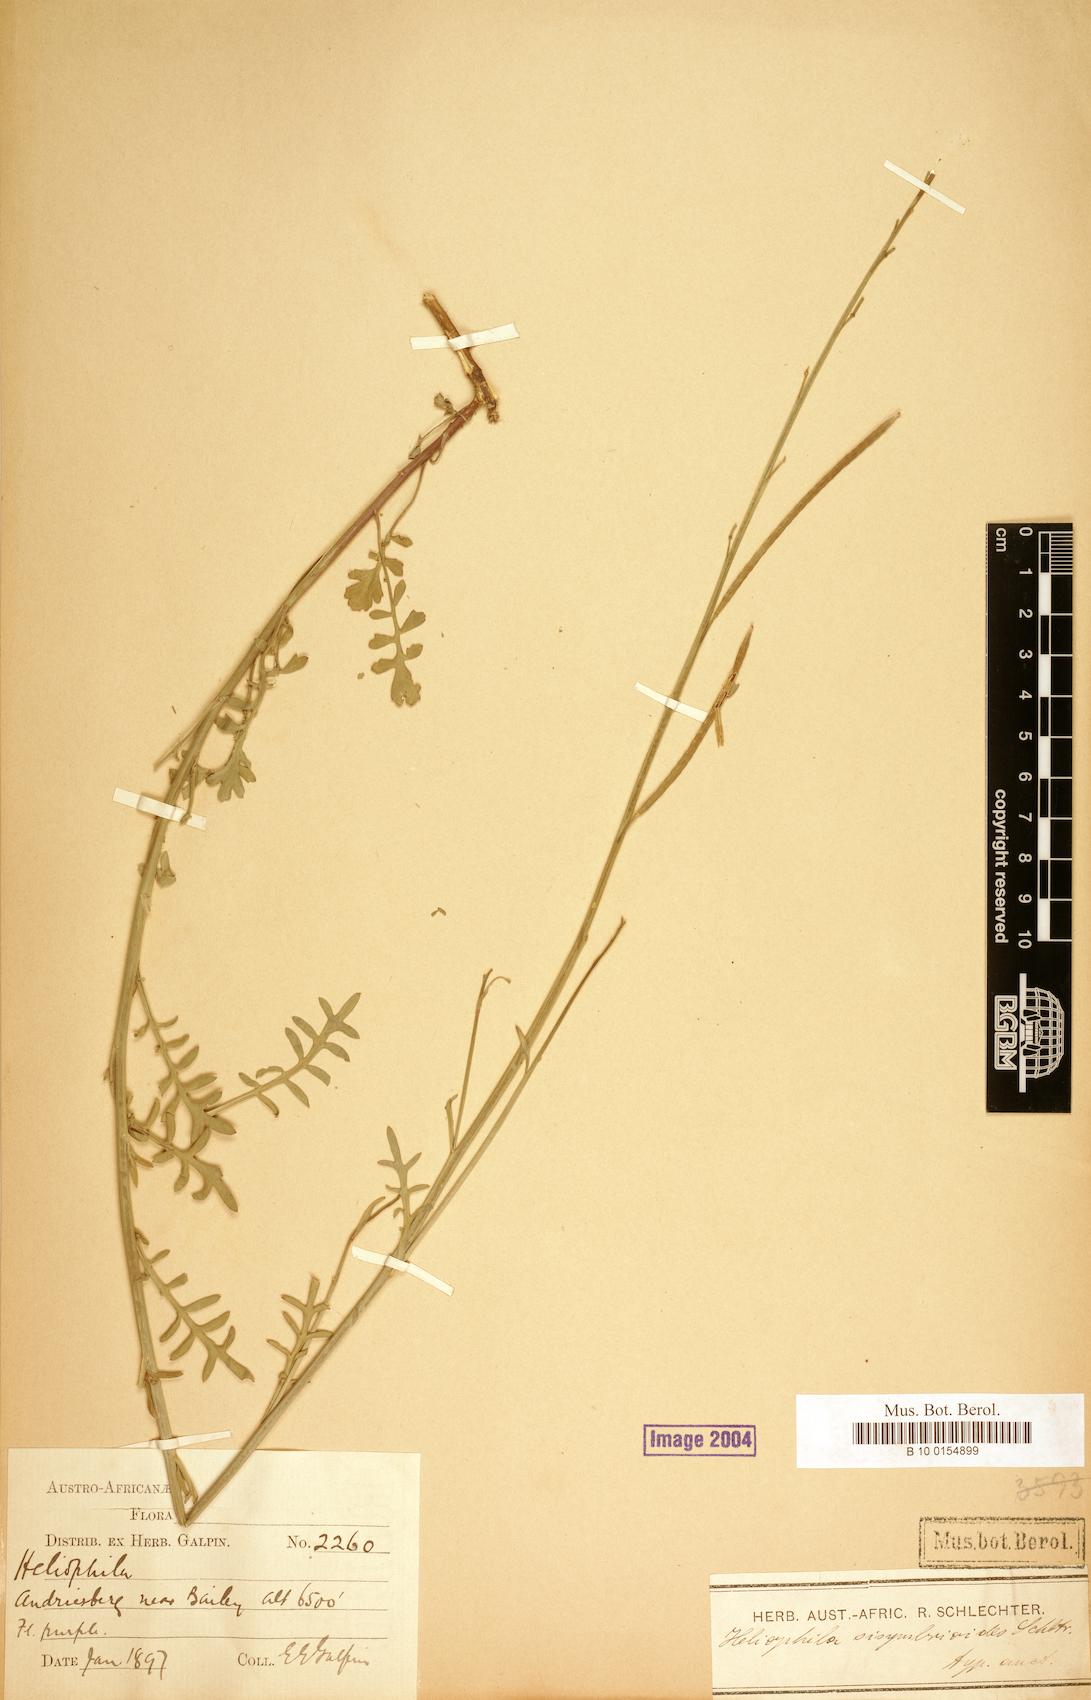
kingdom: Plantae
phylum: Tracheophyta
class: Magnoliopsida
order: Brassicales
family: Brassicaceae
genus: Aplanodes
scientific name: Aplanodes sisymbrioides
